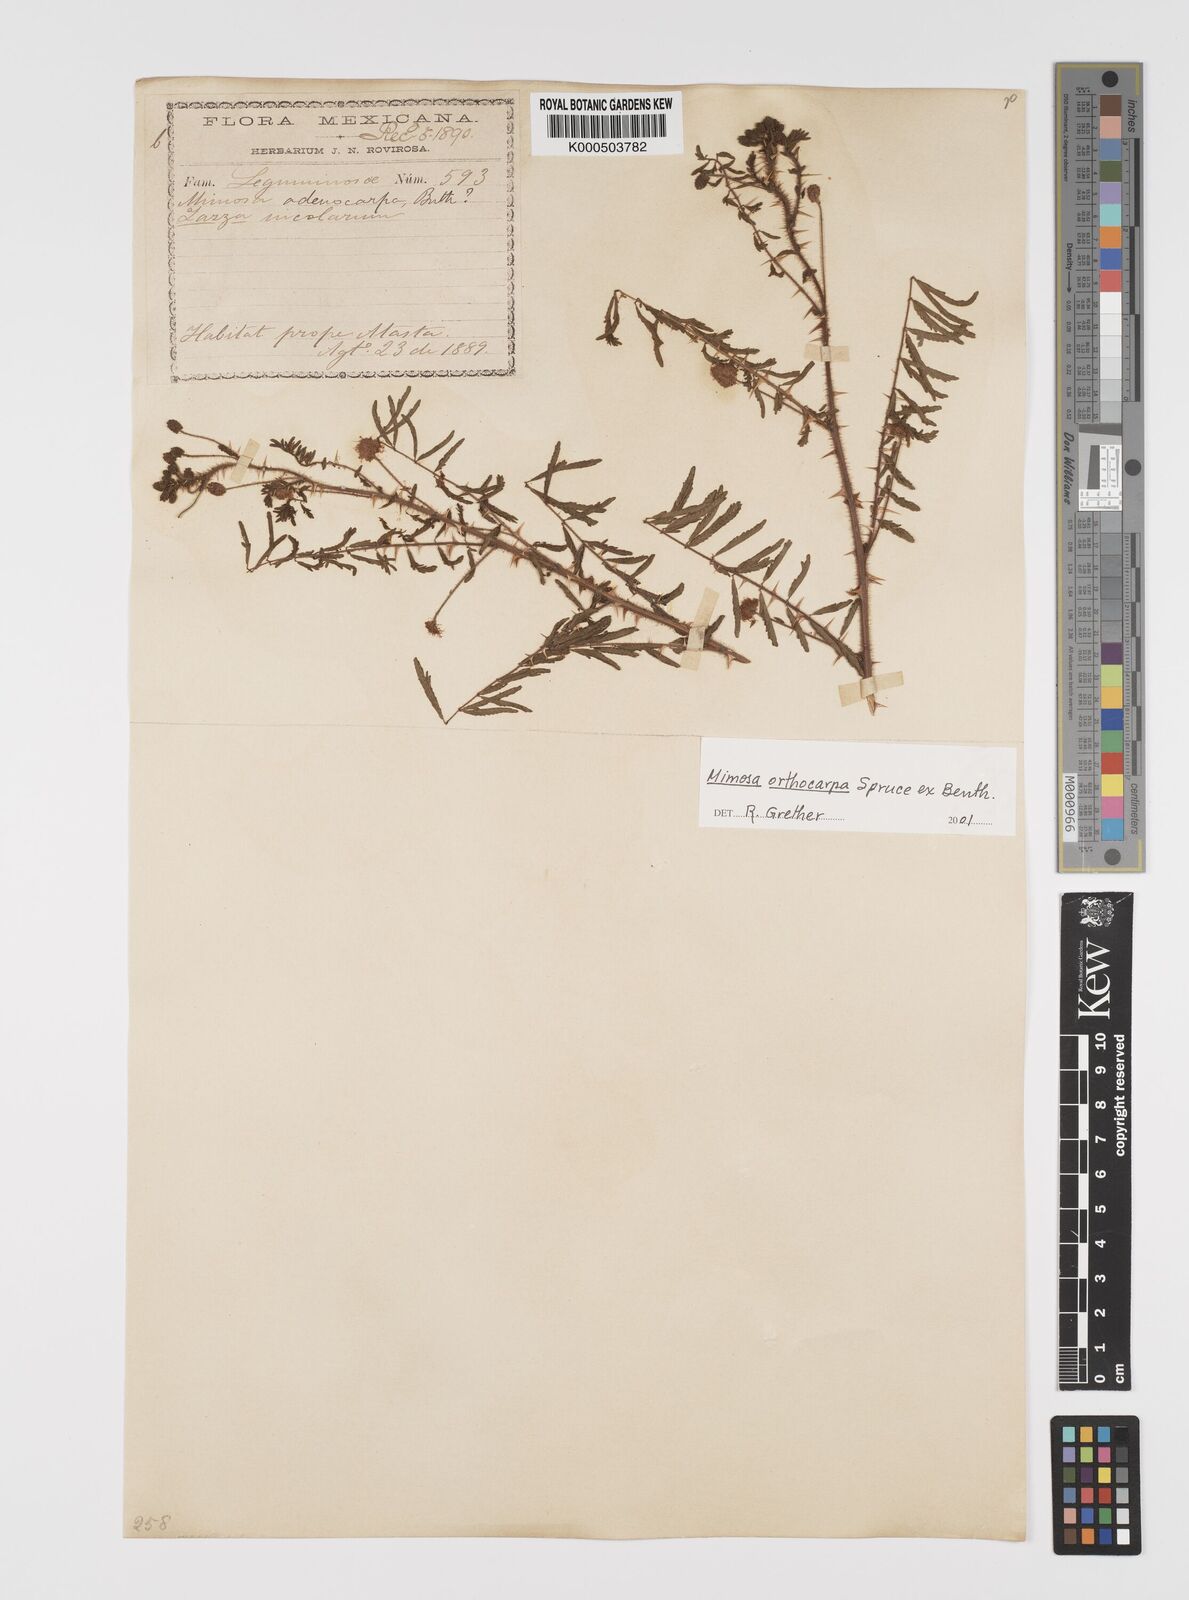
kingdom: Plantae
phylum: Tracheophyta
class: Magnoliopsida
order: Fabales
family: Fabaceae
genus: Mimosa
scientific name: Mimosa orthocarpa
